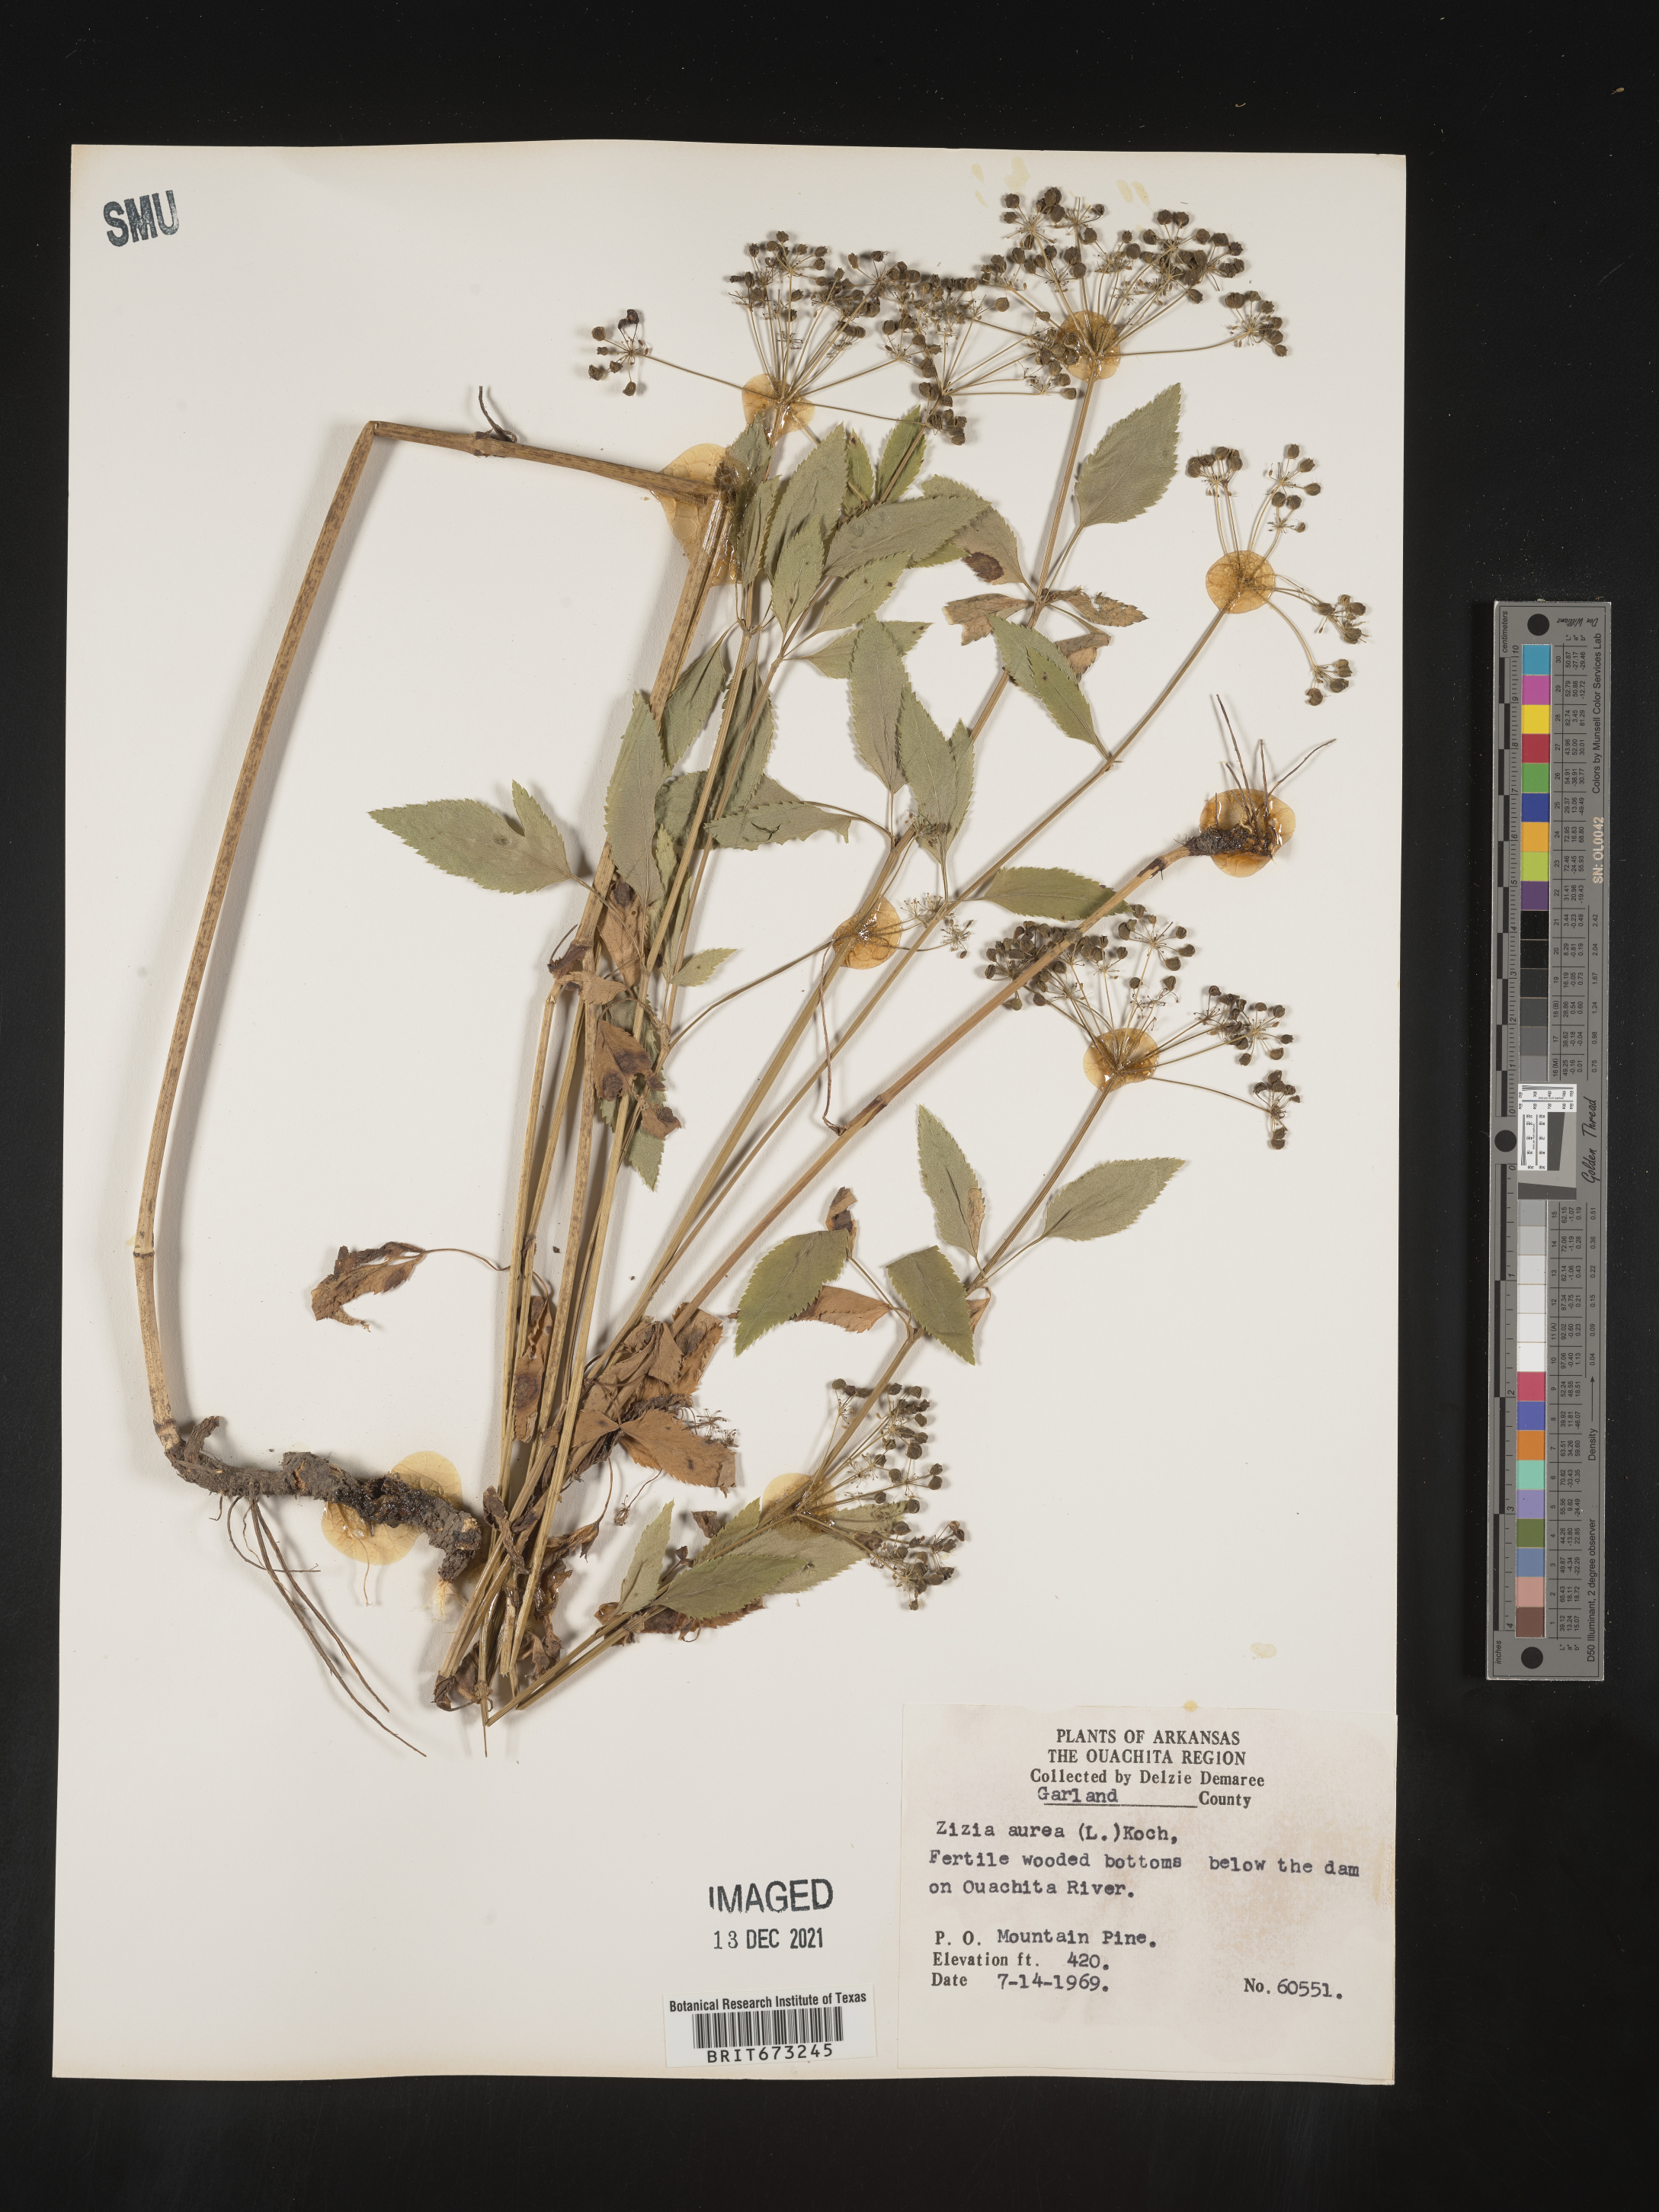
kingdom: Plantae
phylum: Tracheophyta
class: Magnoliopsida
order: Apiales
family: Apiaceae
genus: Zizia
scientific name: Zizia aurea
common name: Golden alexanders
